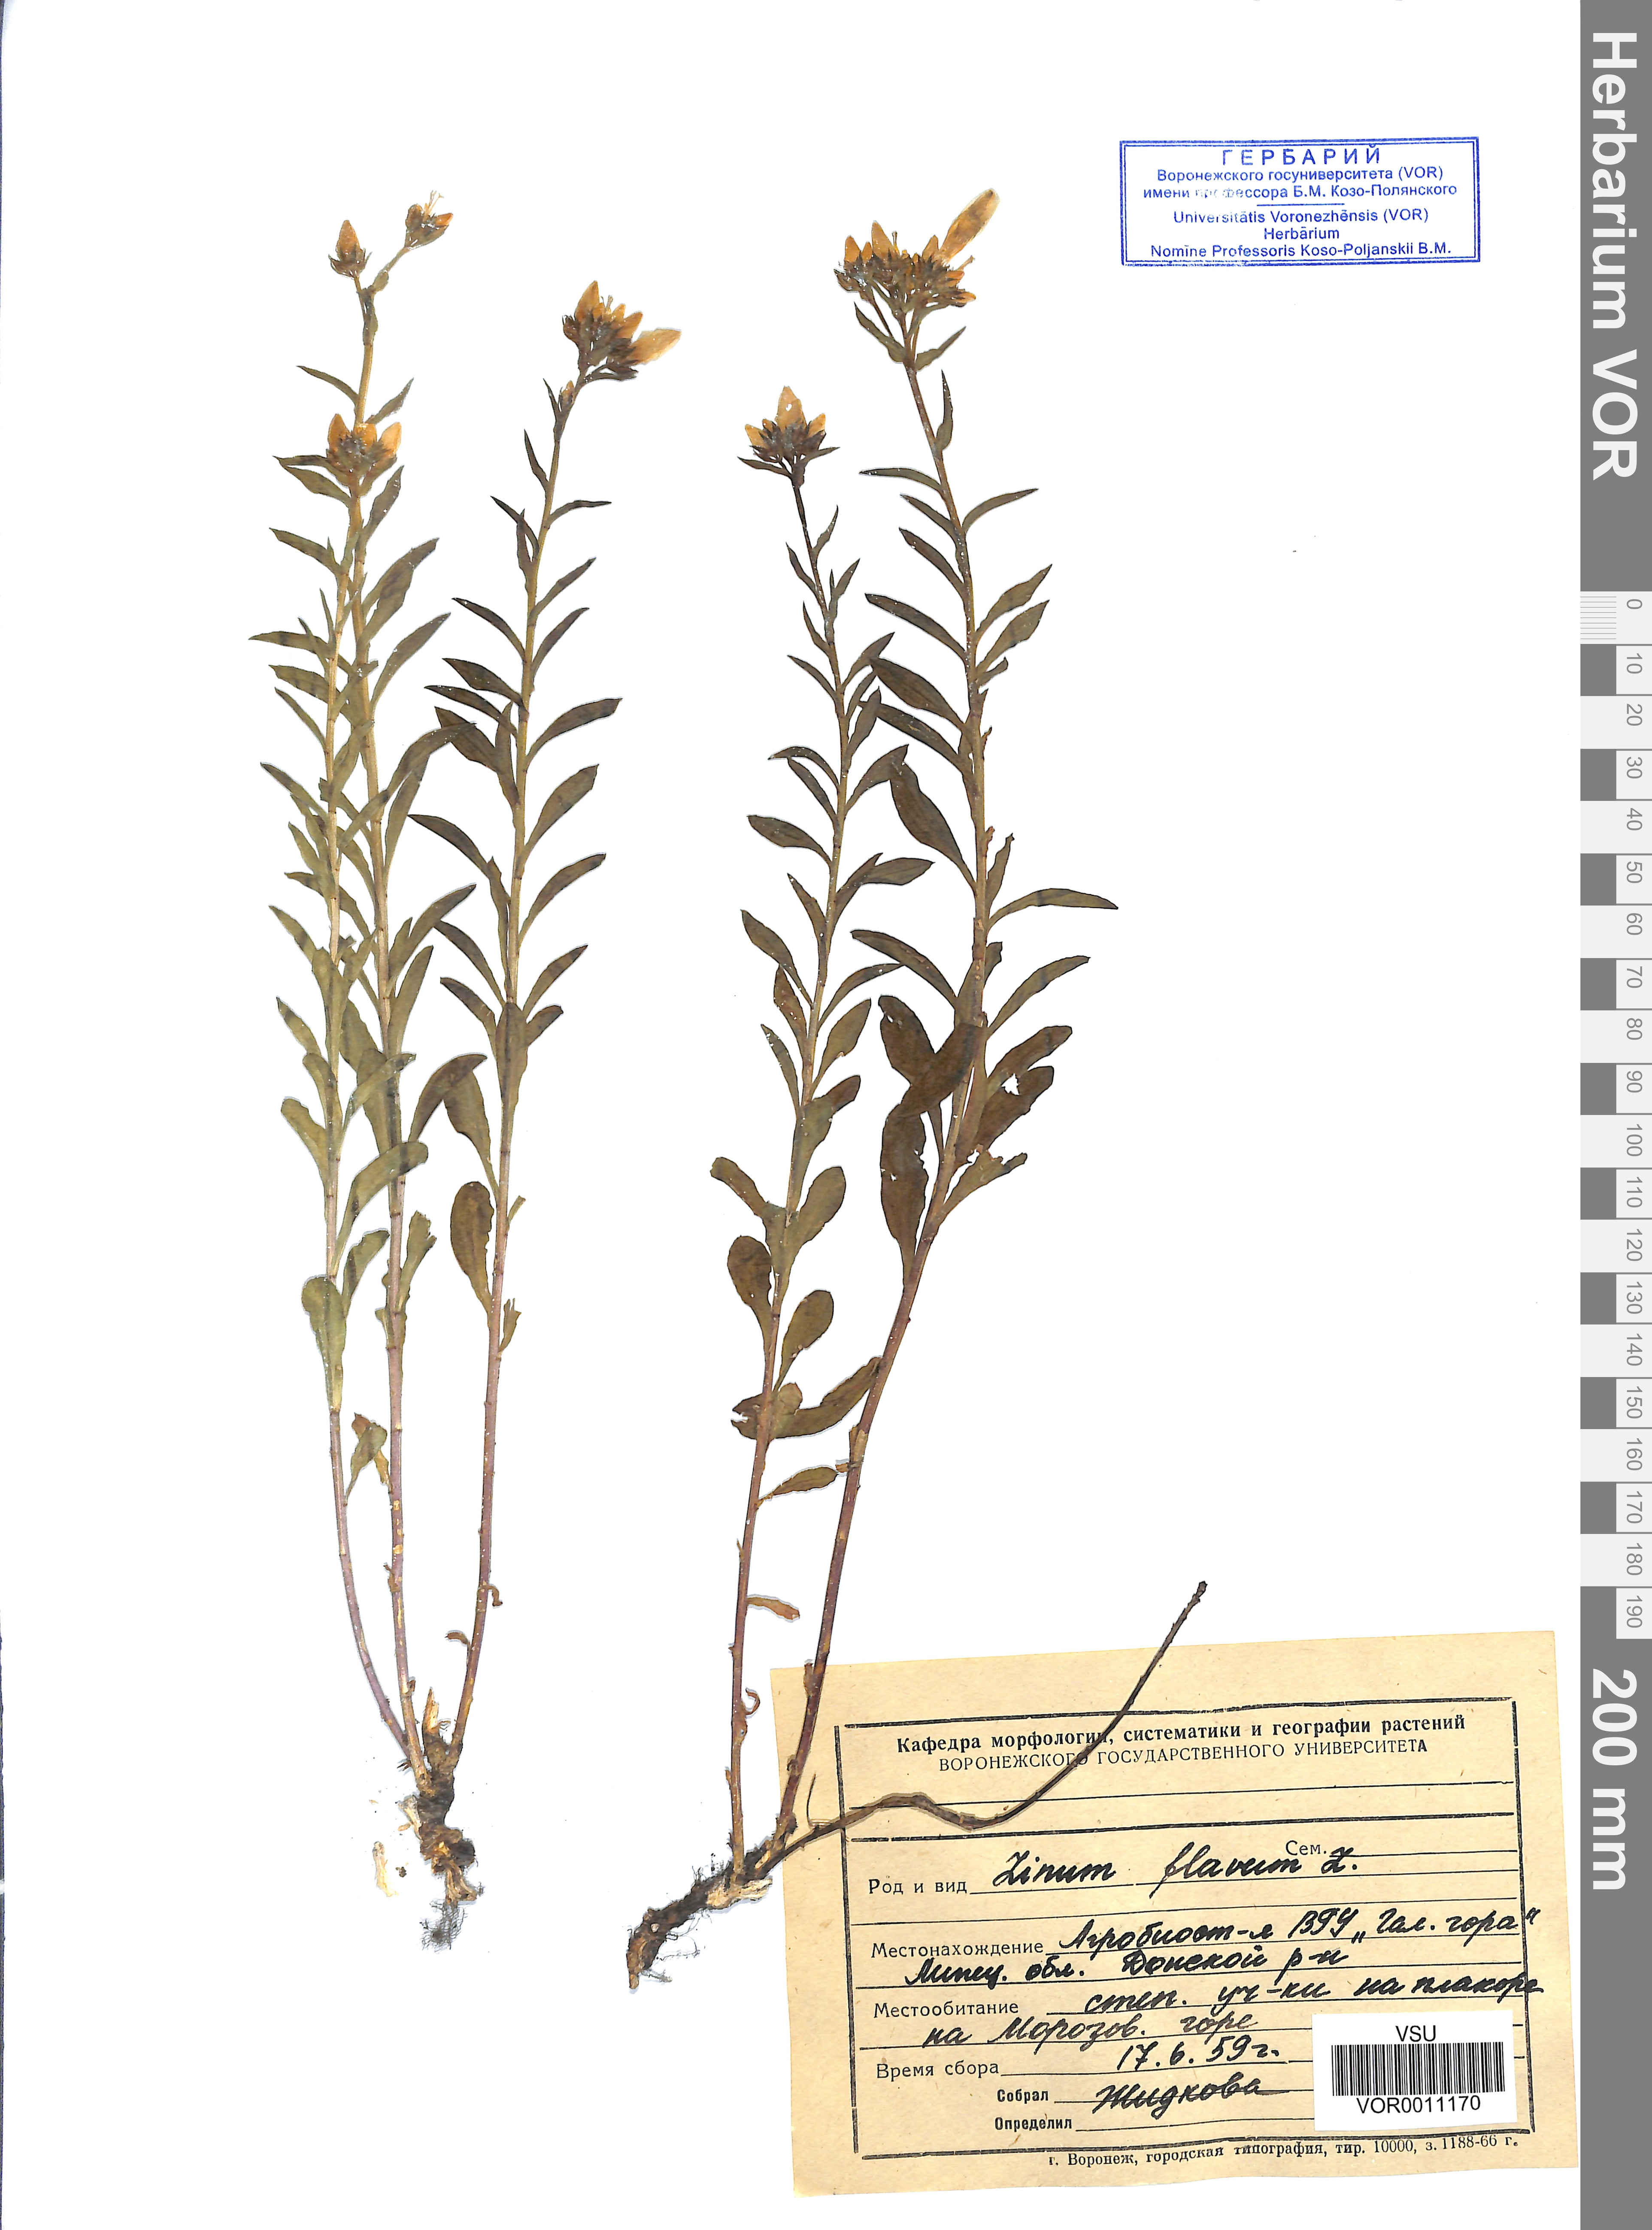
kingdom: Plantae
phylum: Tracheophyta
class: Magnoliopsida
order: Malpighiales
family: Linaceae
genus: Linum
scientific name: Linum flavum
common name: Yellow flax
